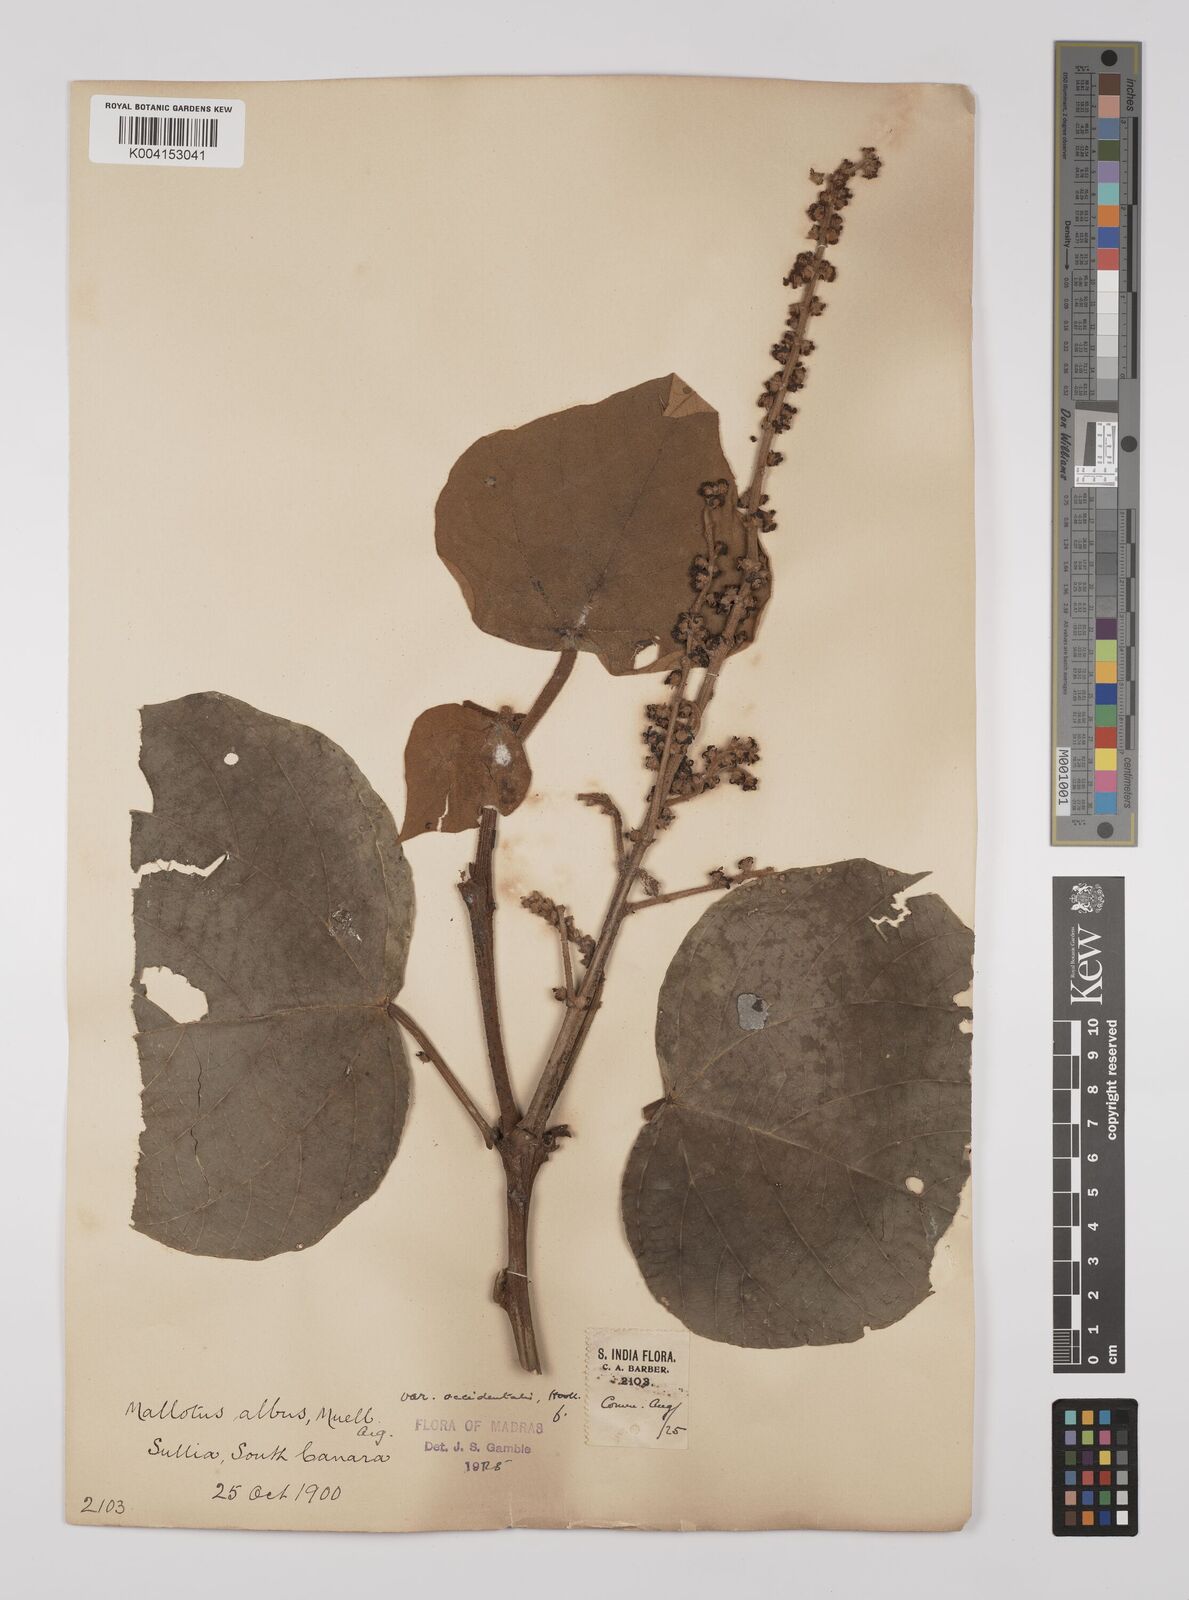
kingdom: Plantae
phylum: Tracheophyta
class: Magnoliopsida
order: Malpighiales
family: Euphorbiaceae
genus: Mallotus
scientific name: Mallotus paniculatus
